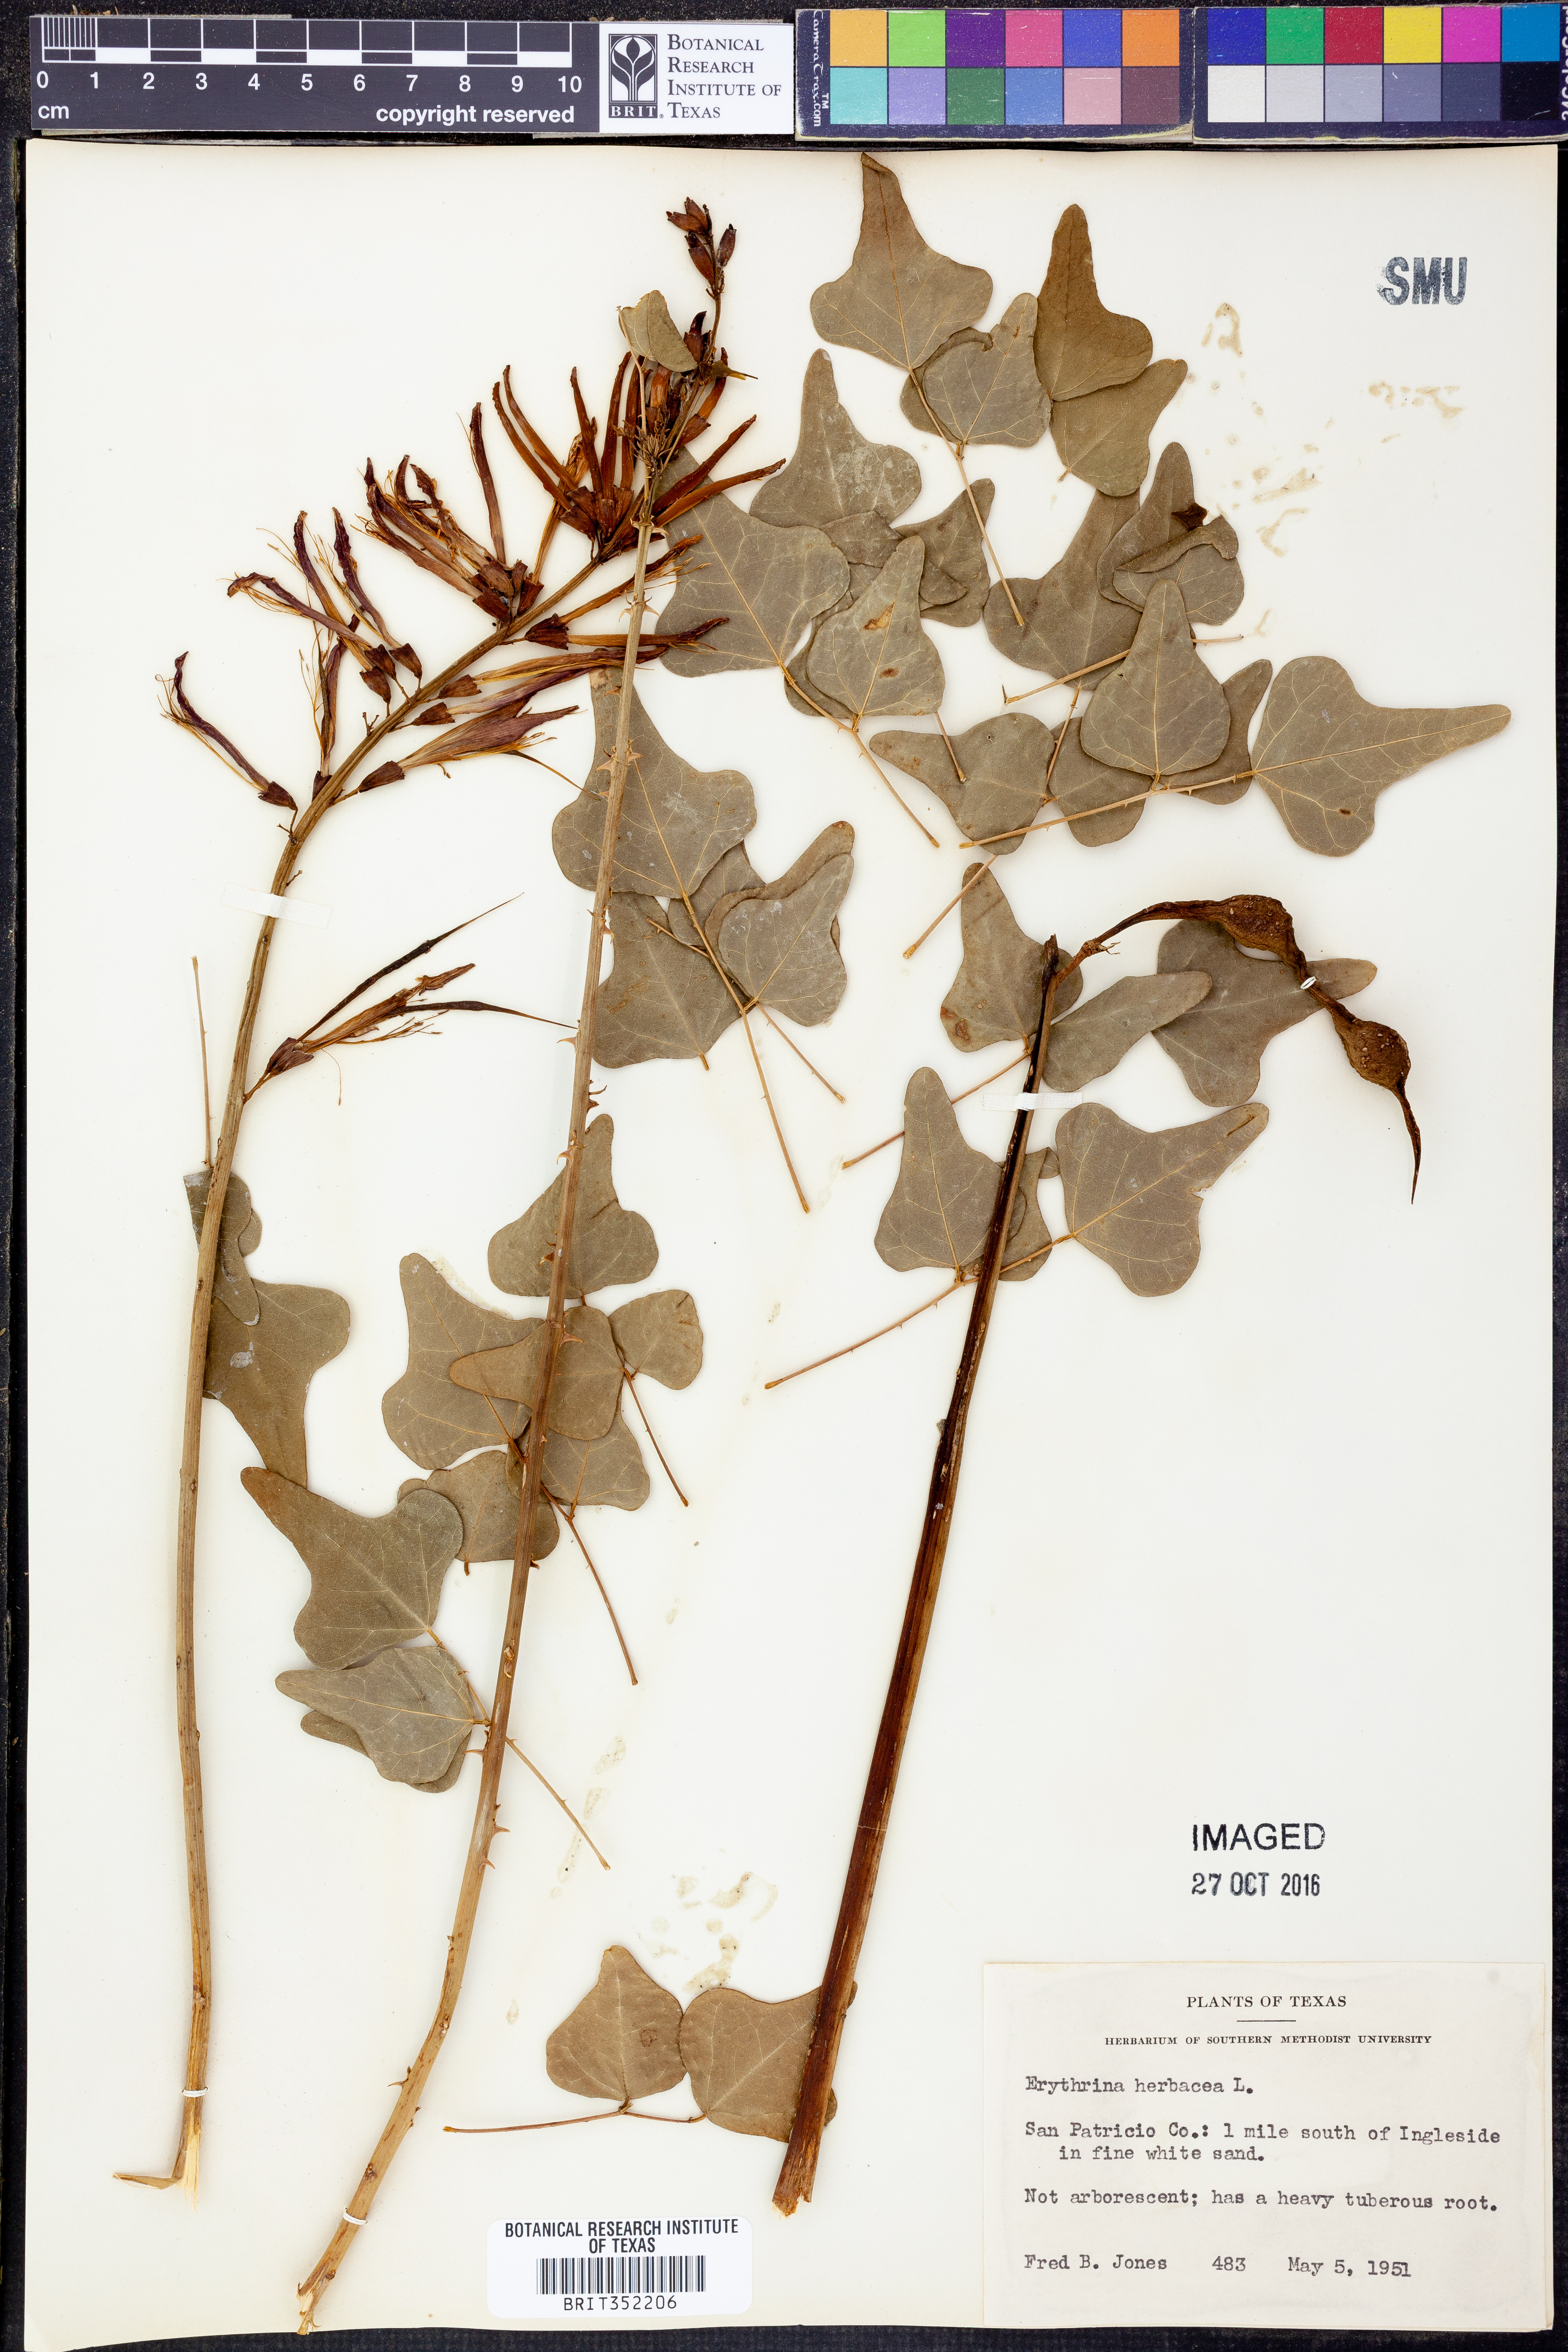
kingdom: Plantae
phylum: Tracheophyta
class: Magnoliopsida
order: Fabales
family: Fabaceae
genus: Erythrina
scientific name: Erythrina herbacea
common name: Coral-bean
